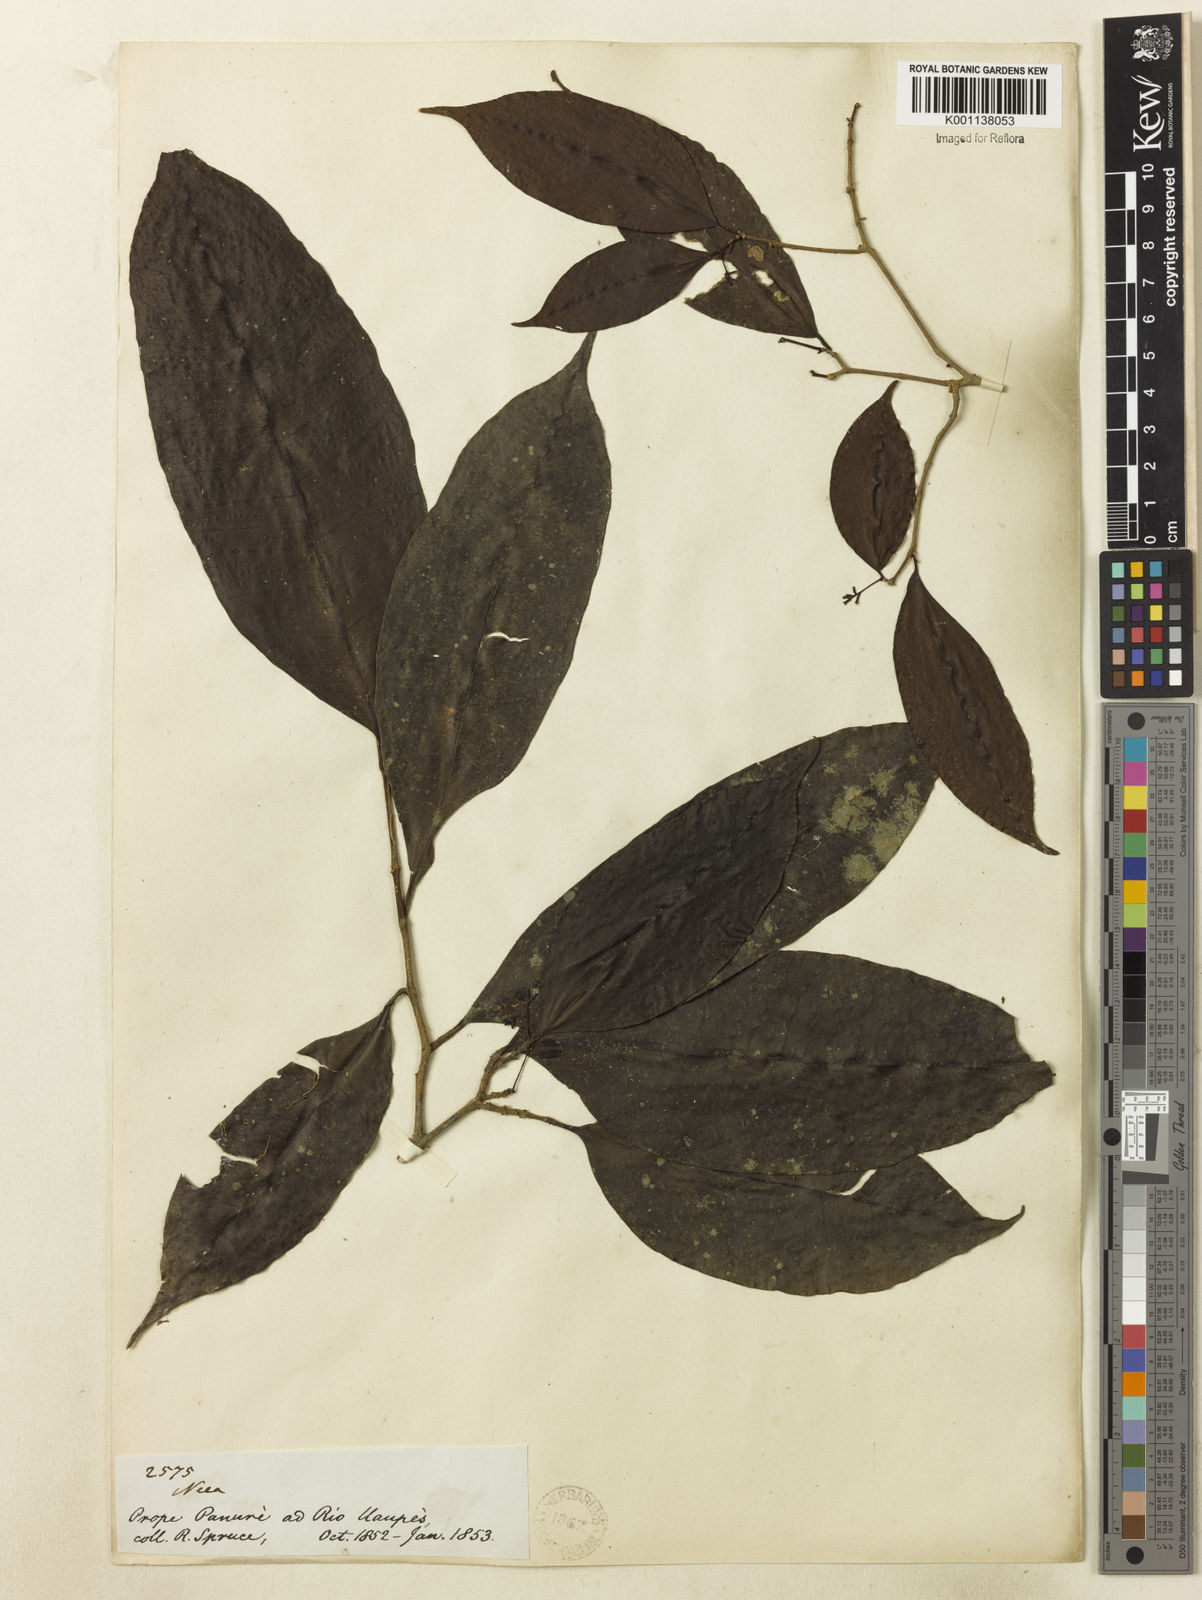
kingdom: Plantae
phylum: Tracheophyta
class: Magnoliopsida
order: Caryophyllales
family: Nyctaginaceae
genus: Neea
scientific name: Neea
